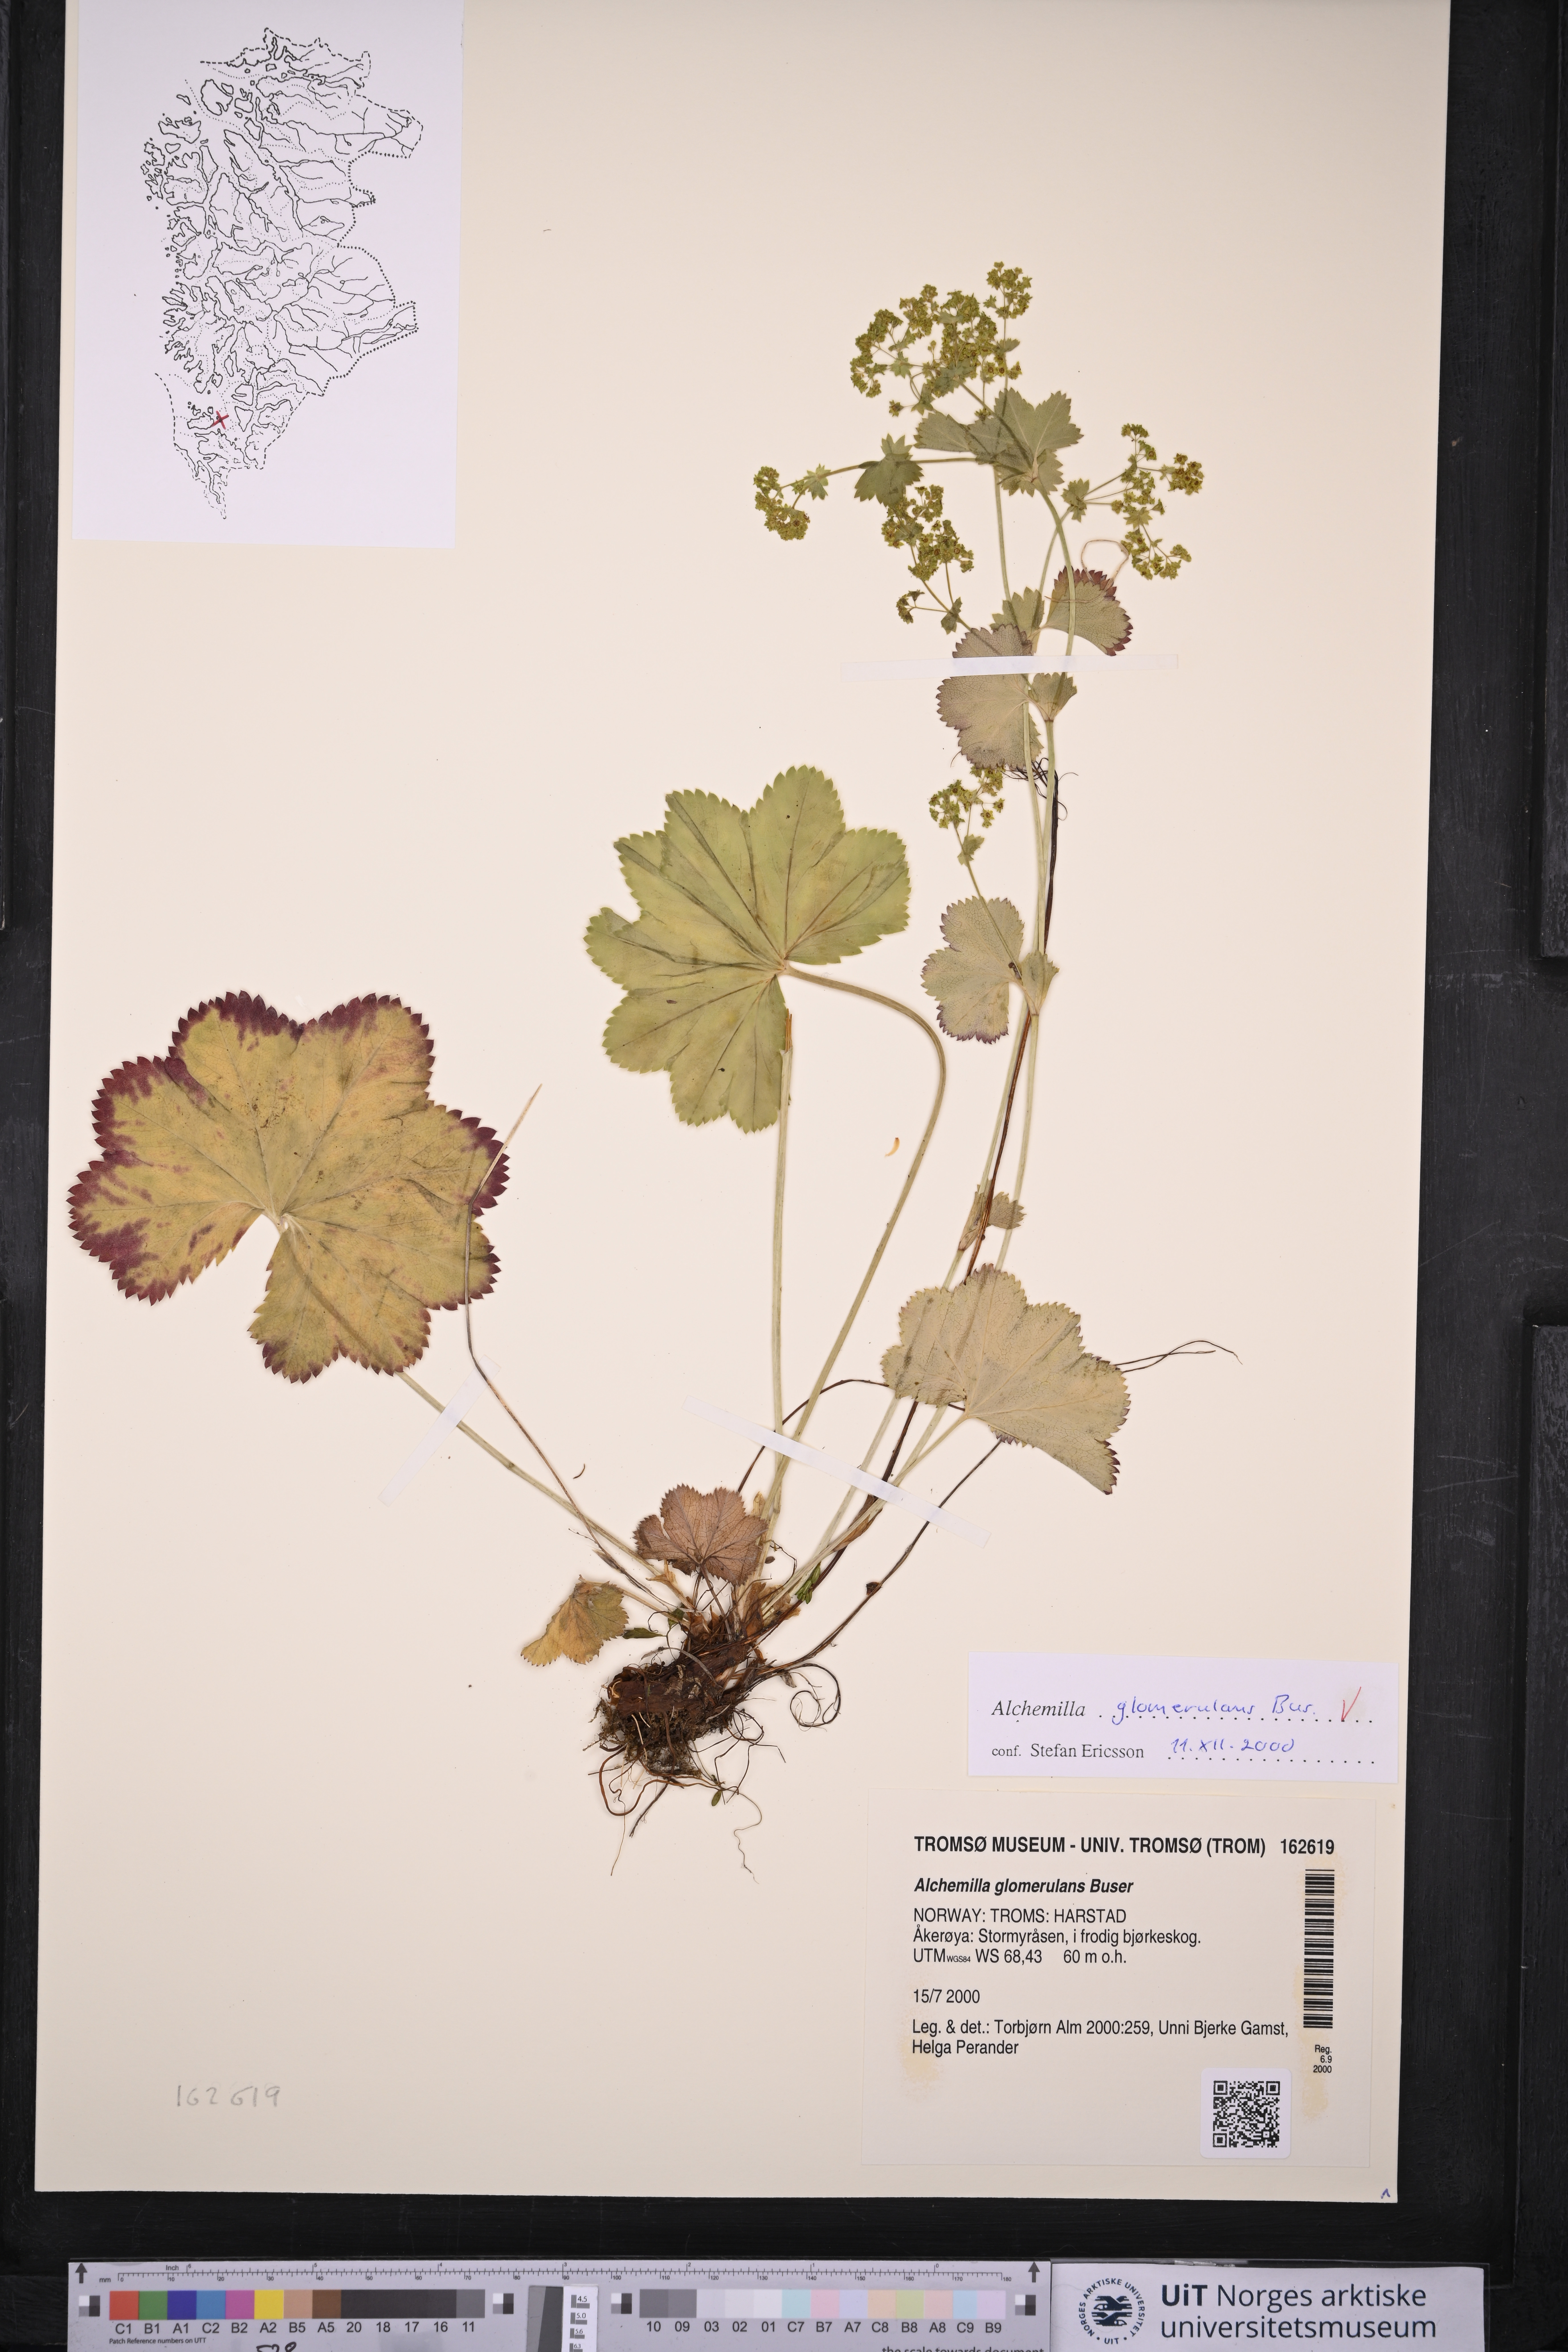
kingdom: Plantae
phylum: Tracheophyta
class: Magnoliopsida
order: Rosales
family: Rosaceae
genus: Alchemilla
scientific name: Alchemilla glomerulans
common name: Clustered lady's mantle
